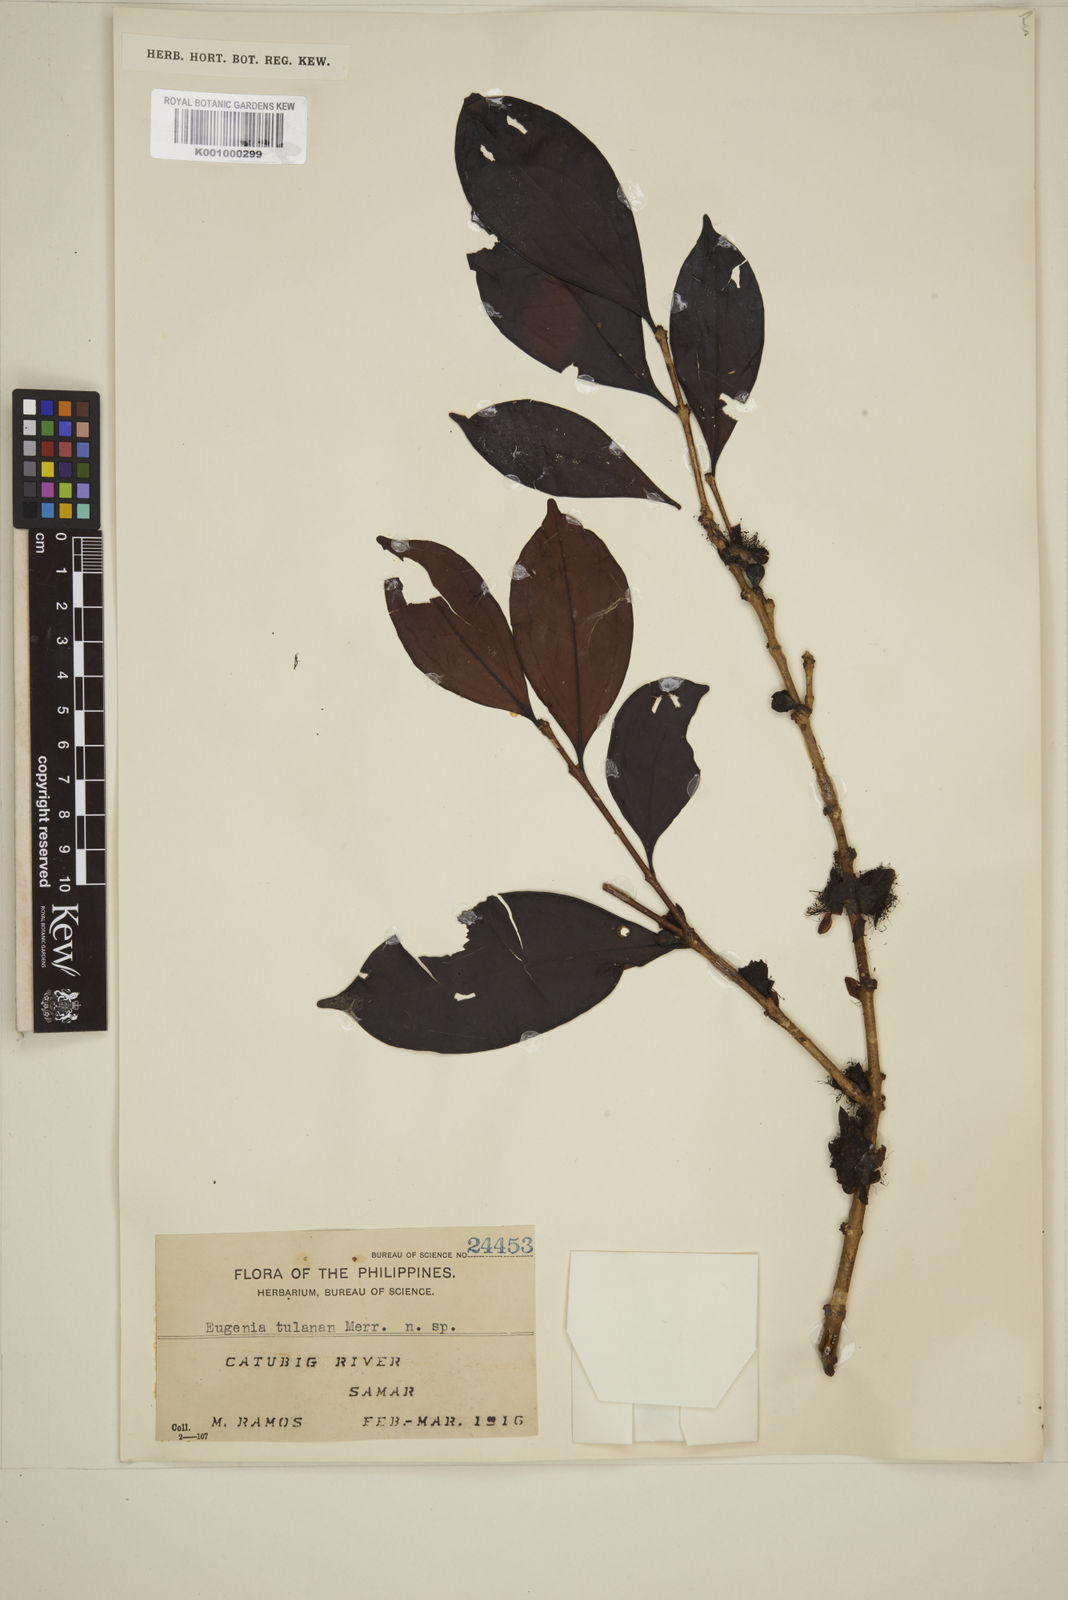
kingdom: Plantae
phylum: Tracheophyta
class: Magnoliopsida
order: Myrtales
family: Myrtaceae
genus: Eugenia
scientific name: Eugenia sargentii
